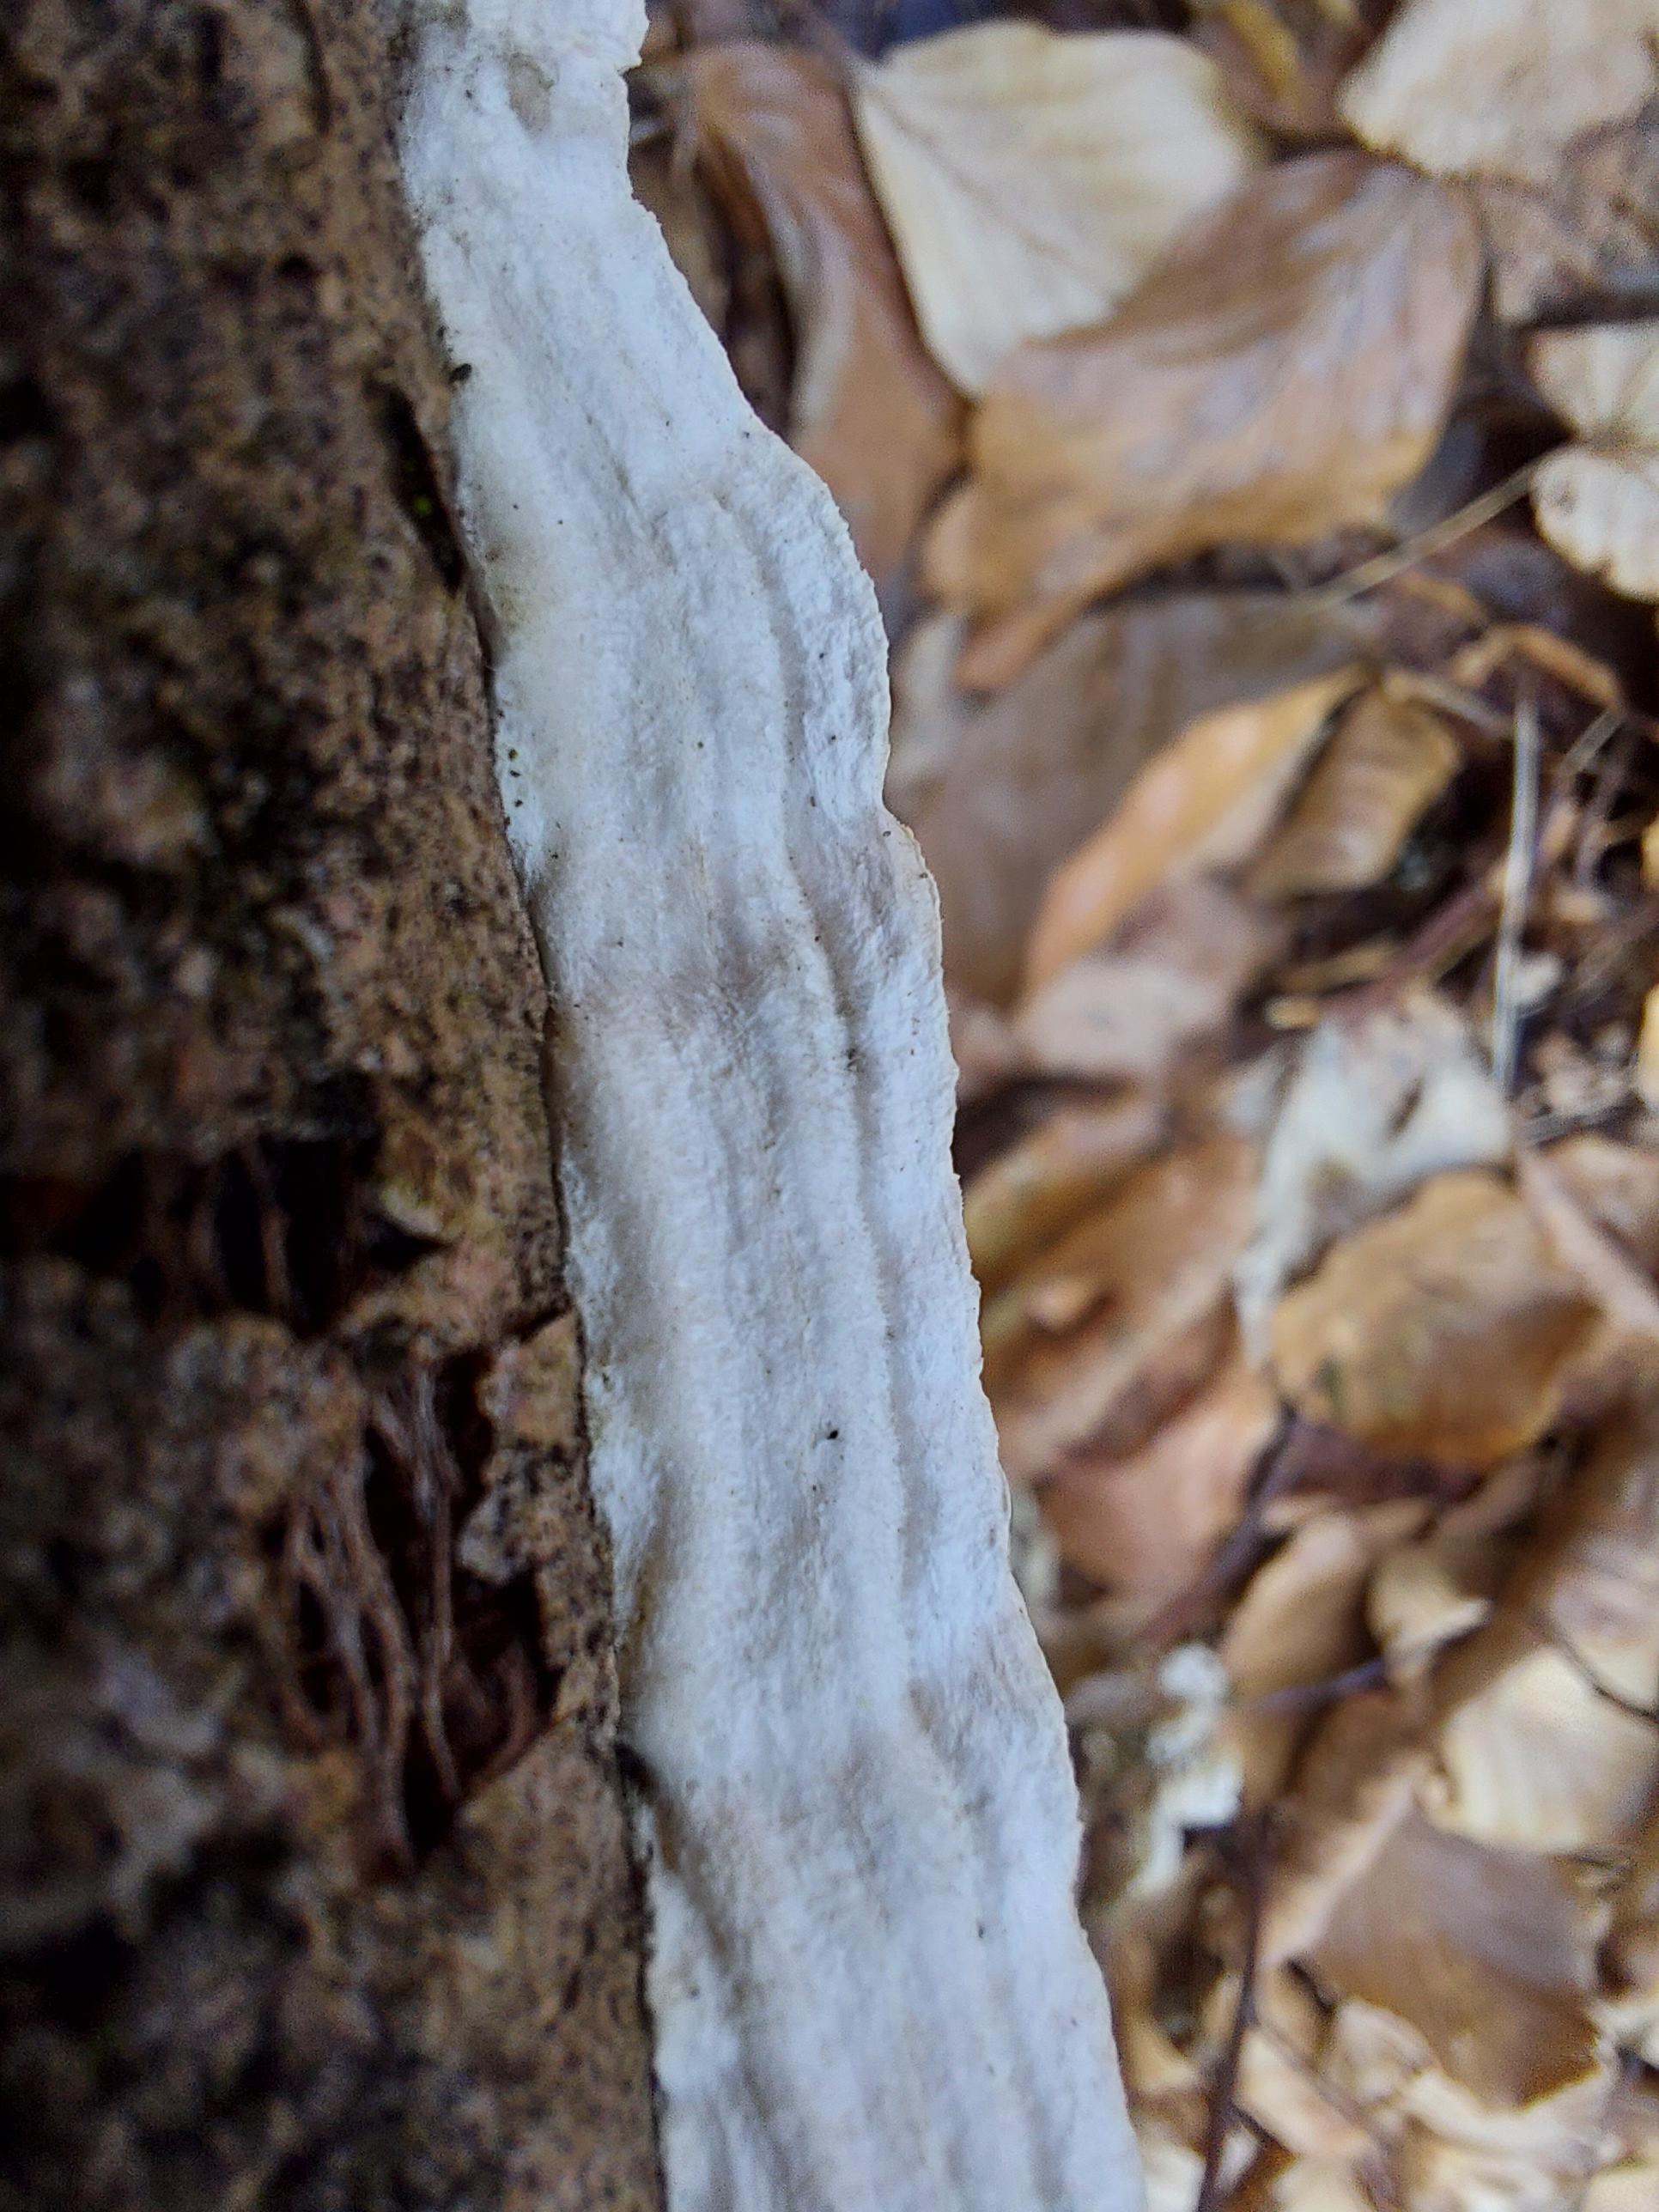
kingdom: Fungi
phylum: Basidiomycota
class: Agaricomycetes
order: Polyporales
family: Irpicaceae
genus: Byssomerulius
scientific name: Byssomerulius corium
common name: læder-åresvamp
